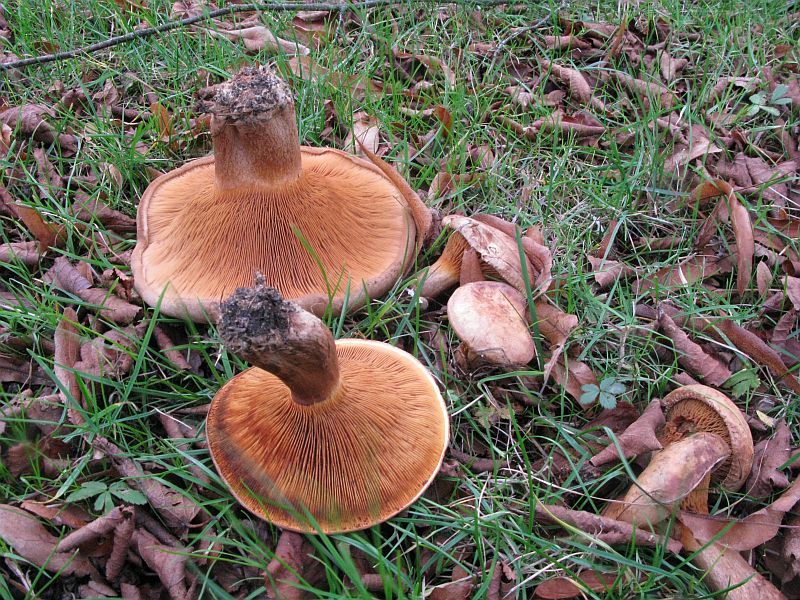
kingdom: Fungi
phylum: Basidiomycota
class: Agaricomycetes
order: Boletales
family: Paxillaceae
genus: Paxillus
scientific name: Paxillus obscurisporus
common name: mahognisporet netbladhat
